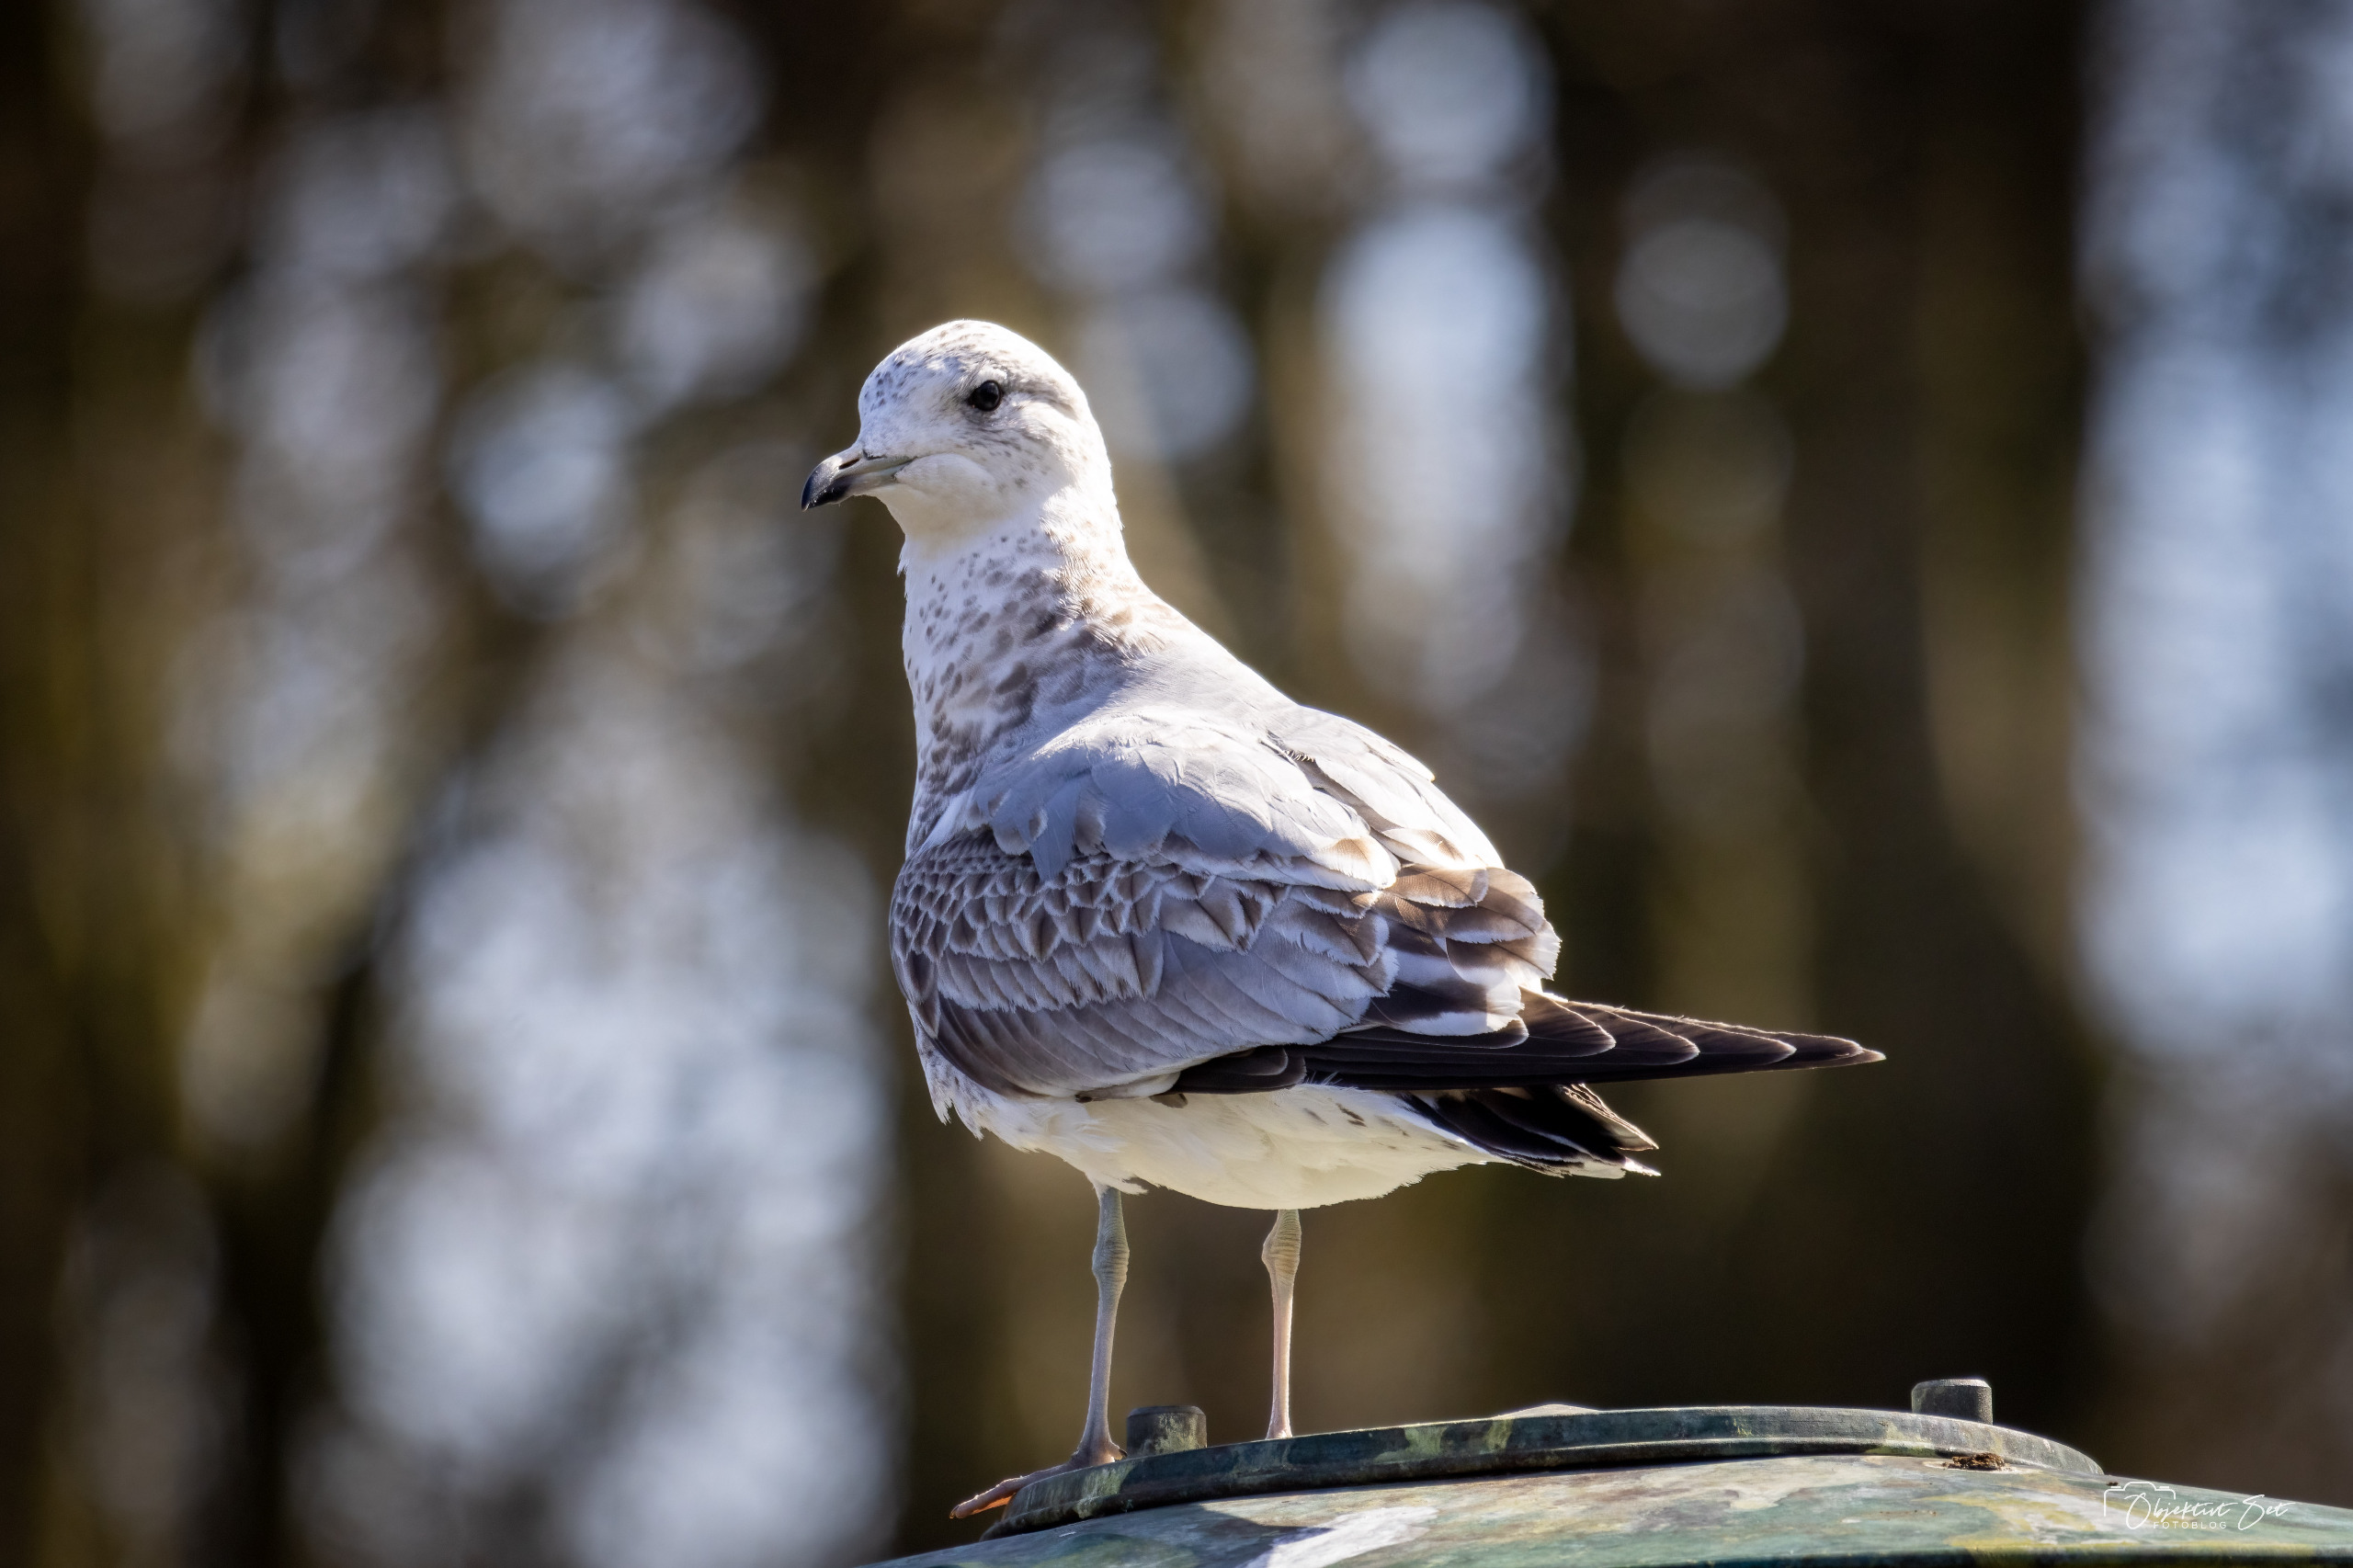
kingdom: Animalia
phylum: Chordata
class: Aves
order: Charadriiformes
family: Laridae
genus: Larus
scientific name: Larus canus
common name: Stormmåge
